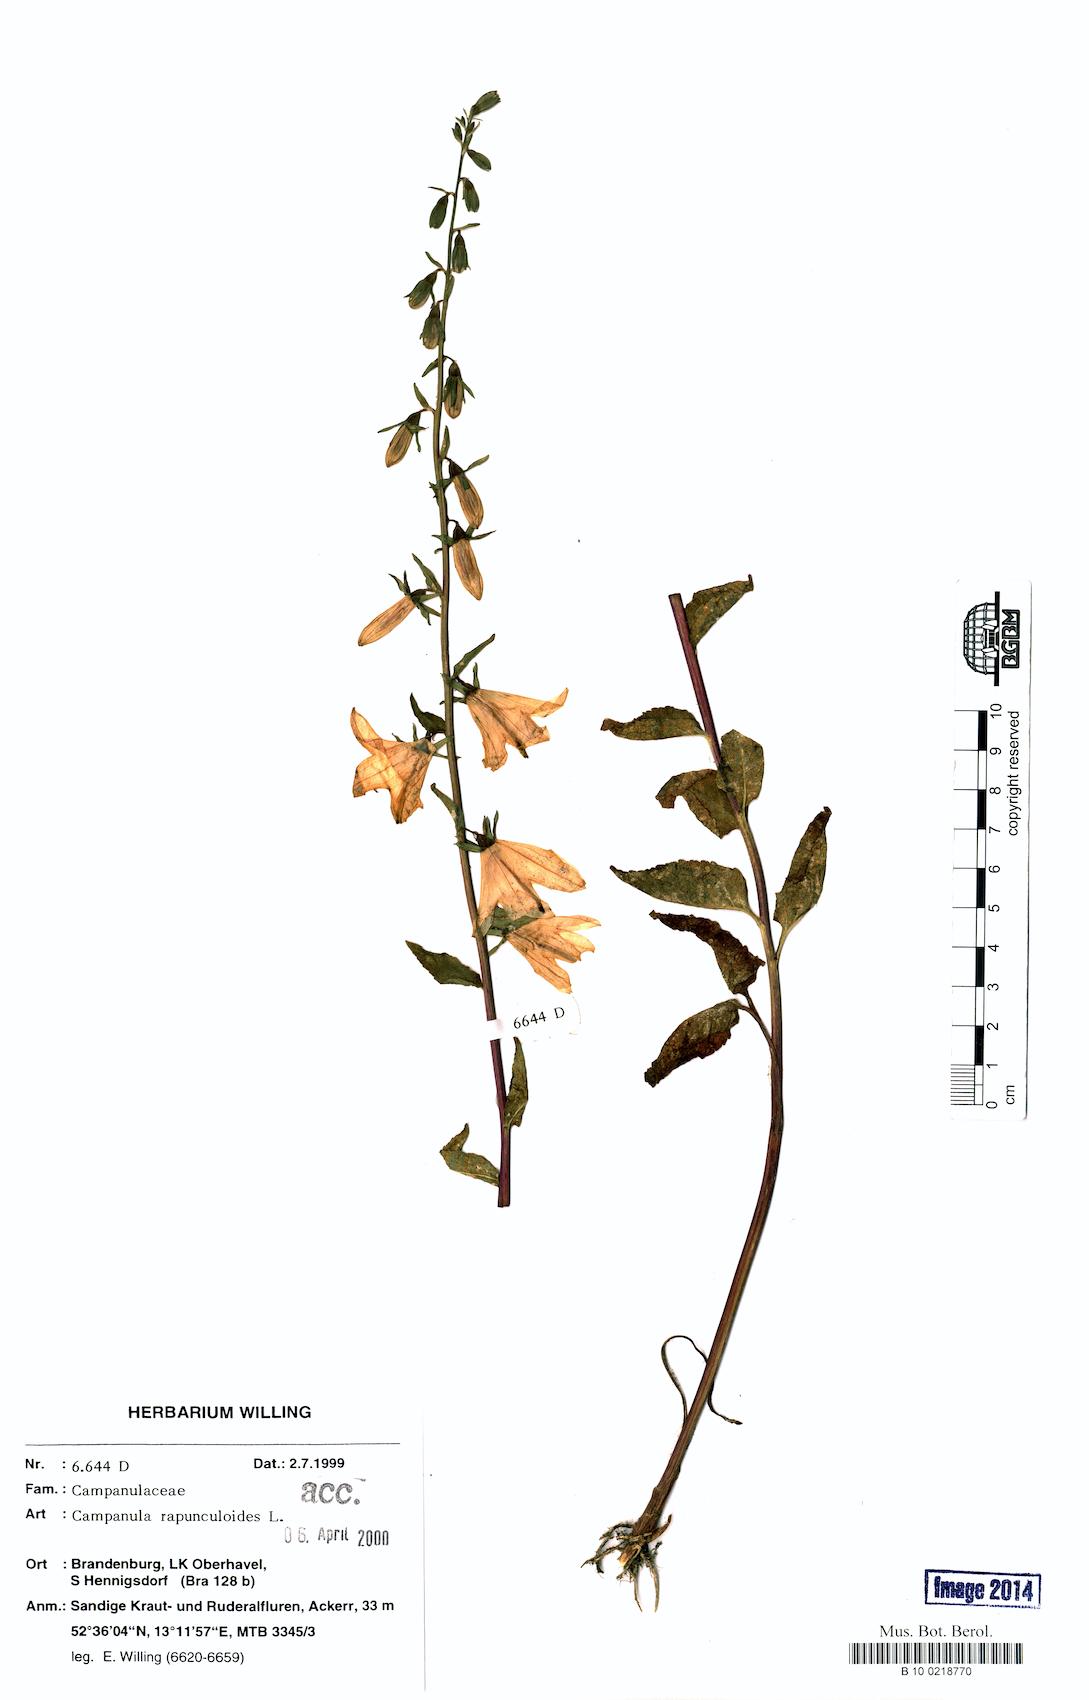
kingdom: Plantae
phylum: Tracheophyta
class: Magnoliopsida
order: Asterales
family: Campanulaceae
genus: Campanula
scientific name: Campanula rapunculoides
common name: Creeping bellflower
